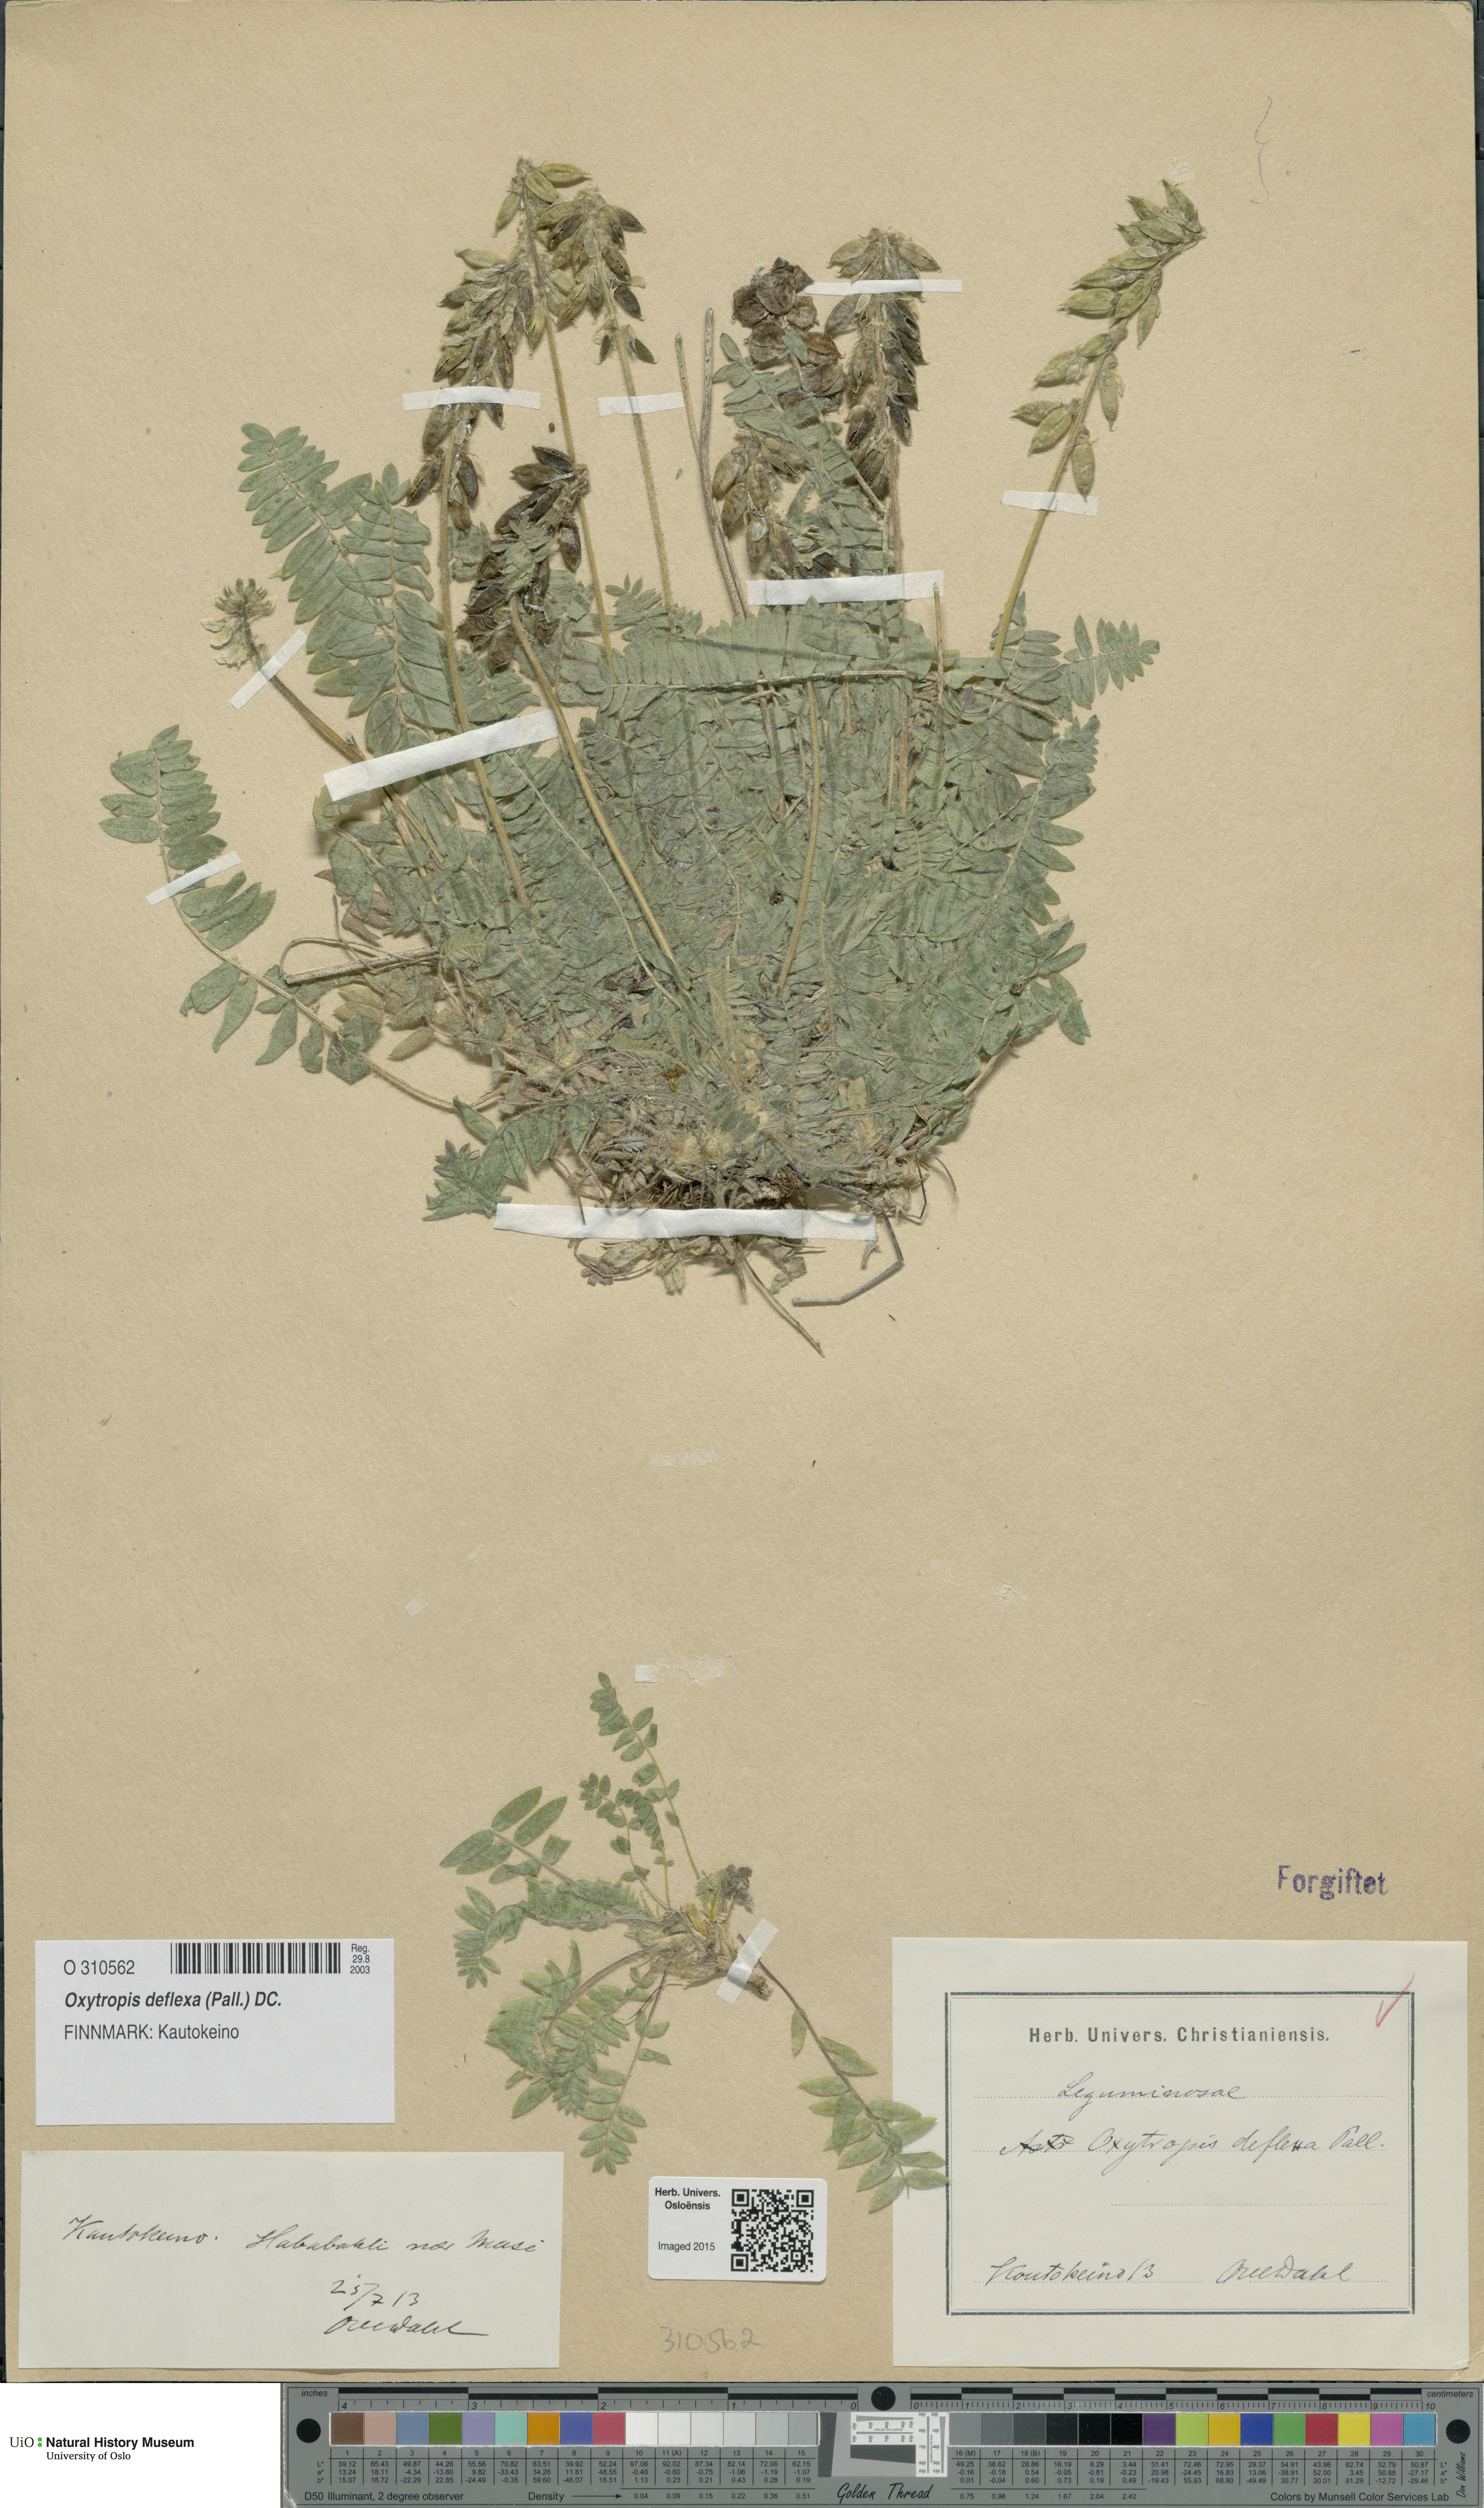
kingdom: Plantae
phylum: Tracheophyta
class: Magnoliopsida
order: Fabales
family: Fabaceae
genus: Oxytropis
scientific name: Oxytropis deflexa
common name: Stemmed oxytrope
